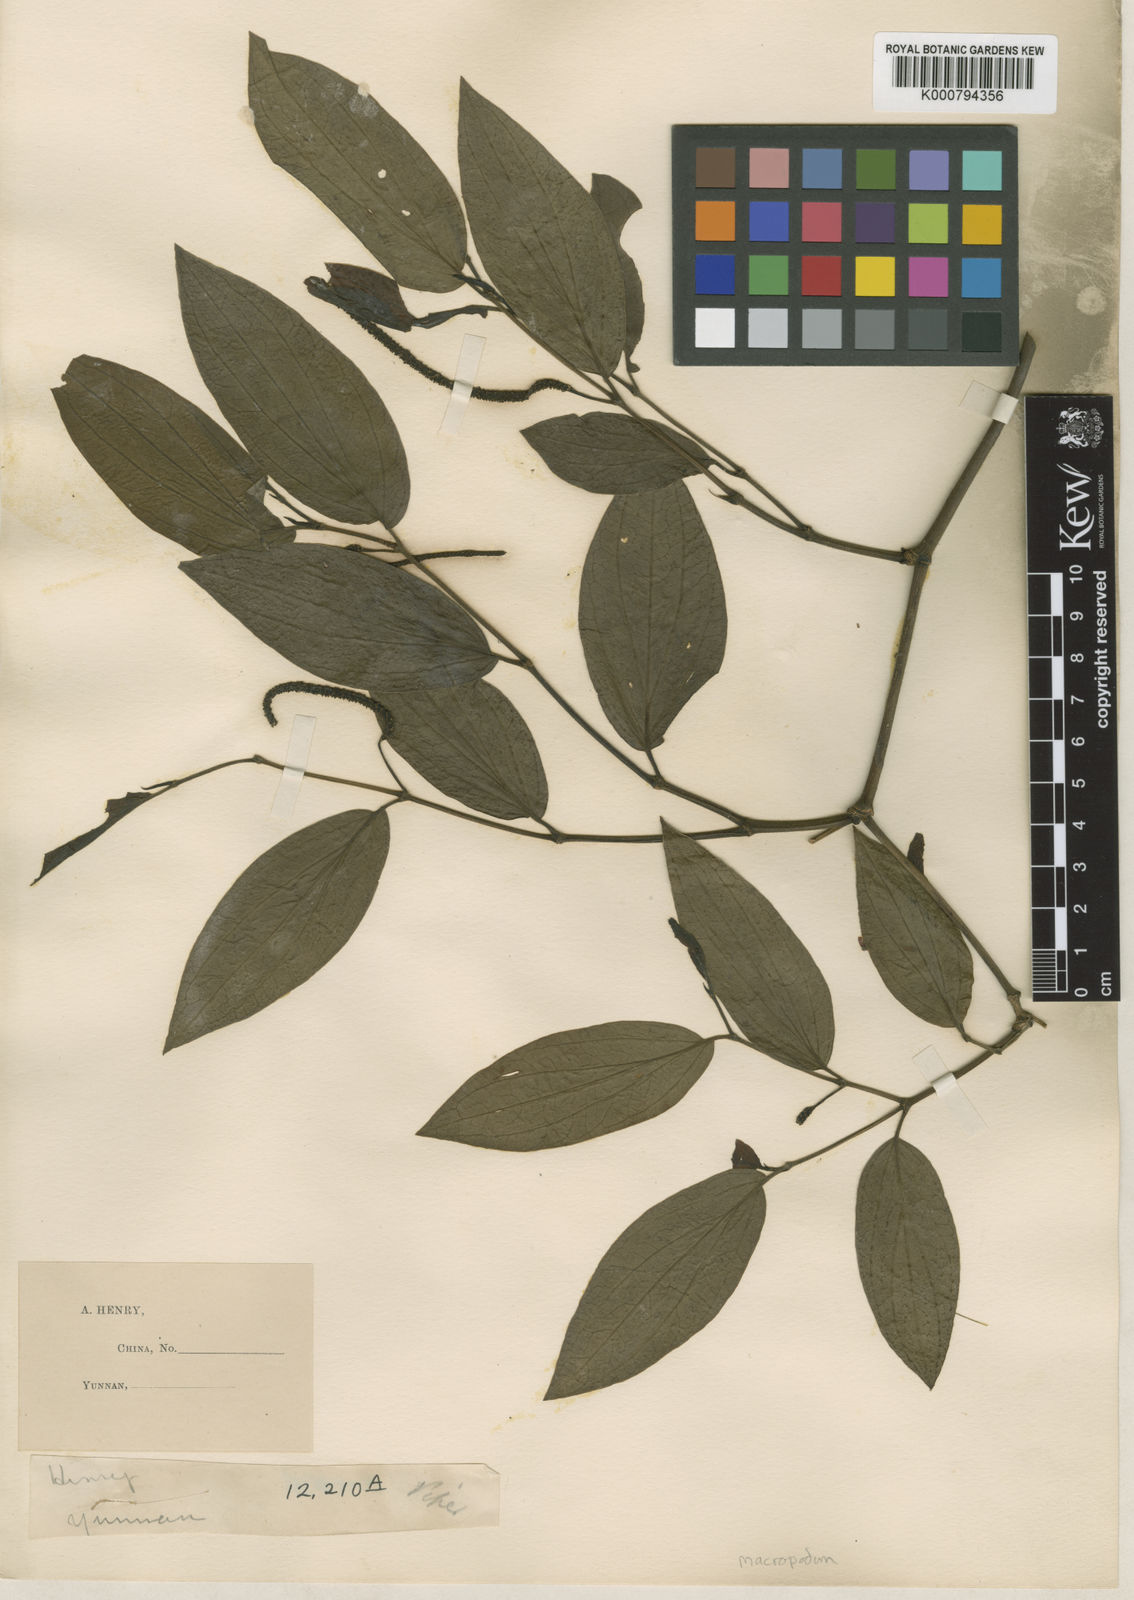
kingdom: Plantae
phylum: Tracheophyta
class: Magnoliopsida
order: Piperales
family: Piperaceae
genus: Piper
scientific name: Piper macropodum
